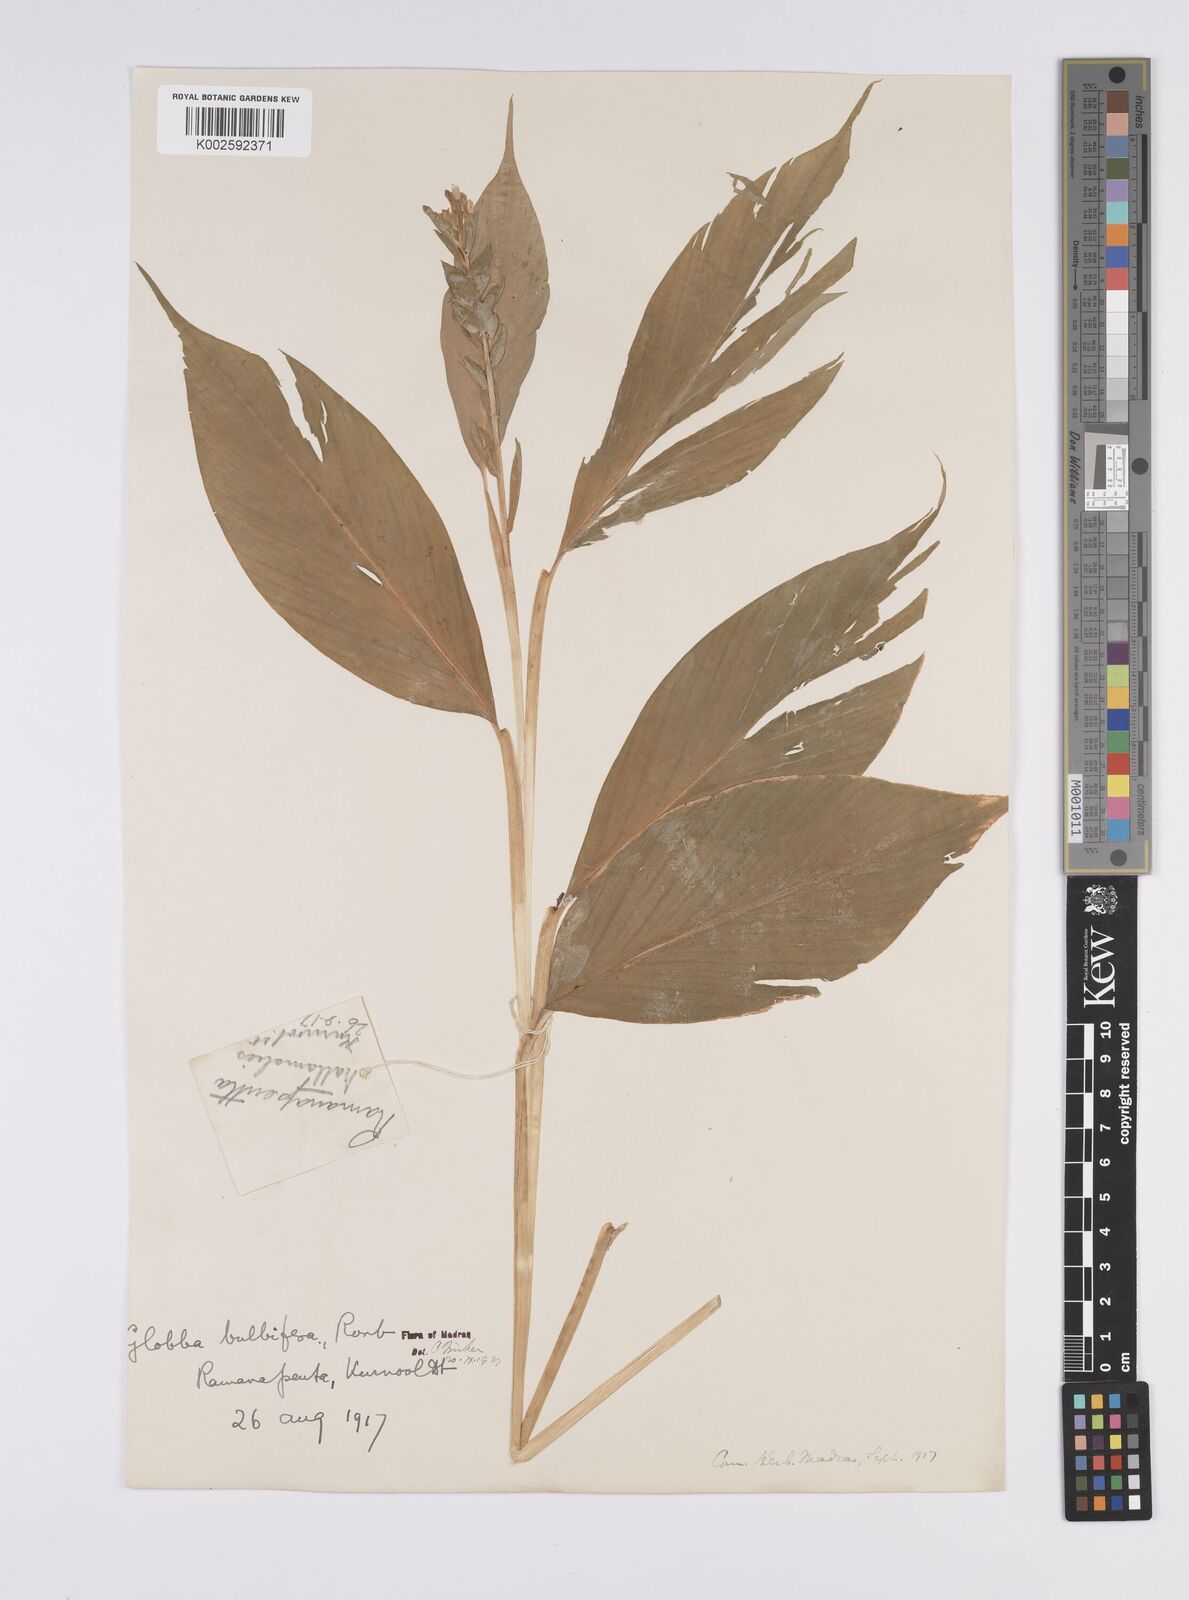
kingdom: Plantae
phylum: Tracheophyta
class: Liliopsida
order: Zingiberales
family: Zingiberaceae
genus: Globba
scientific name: Globba marantina
